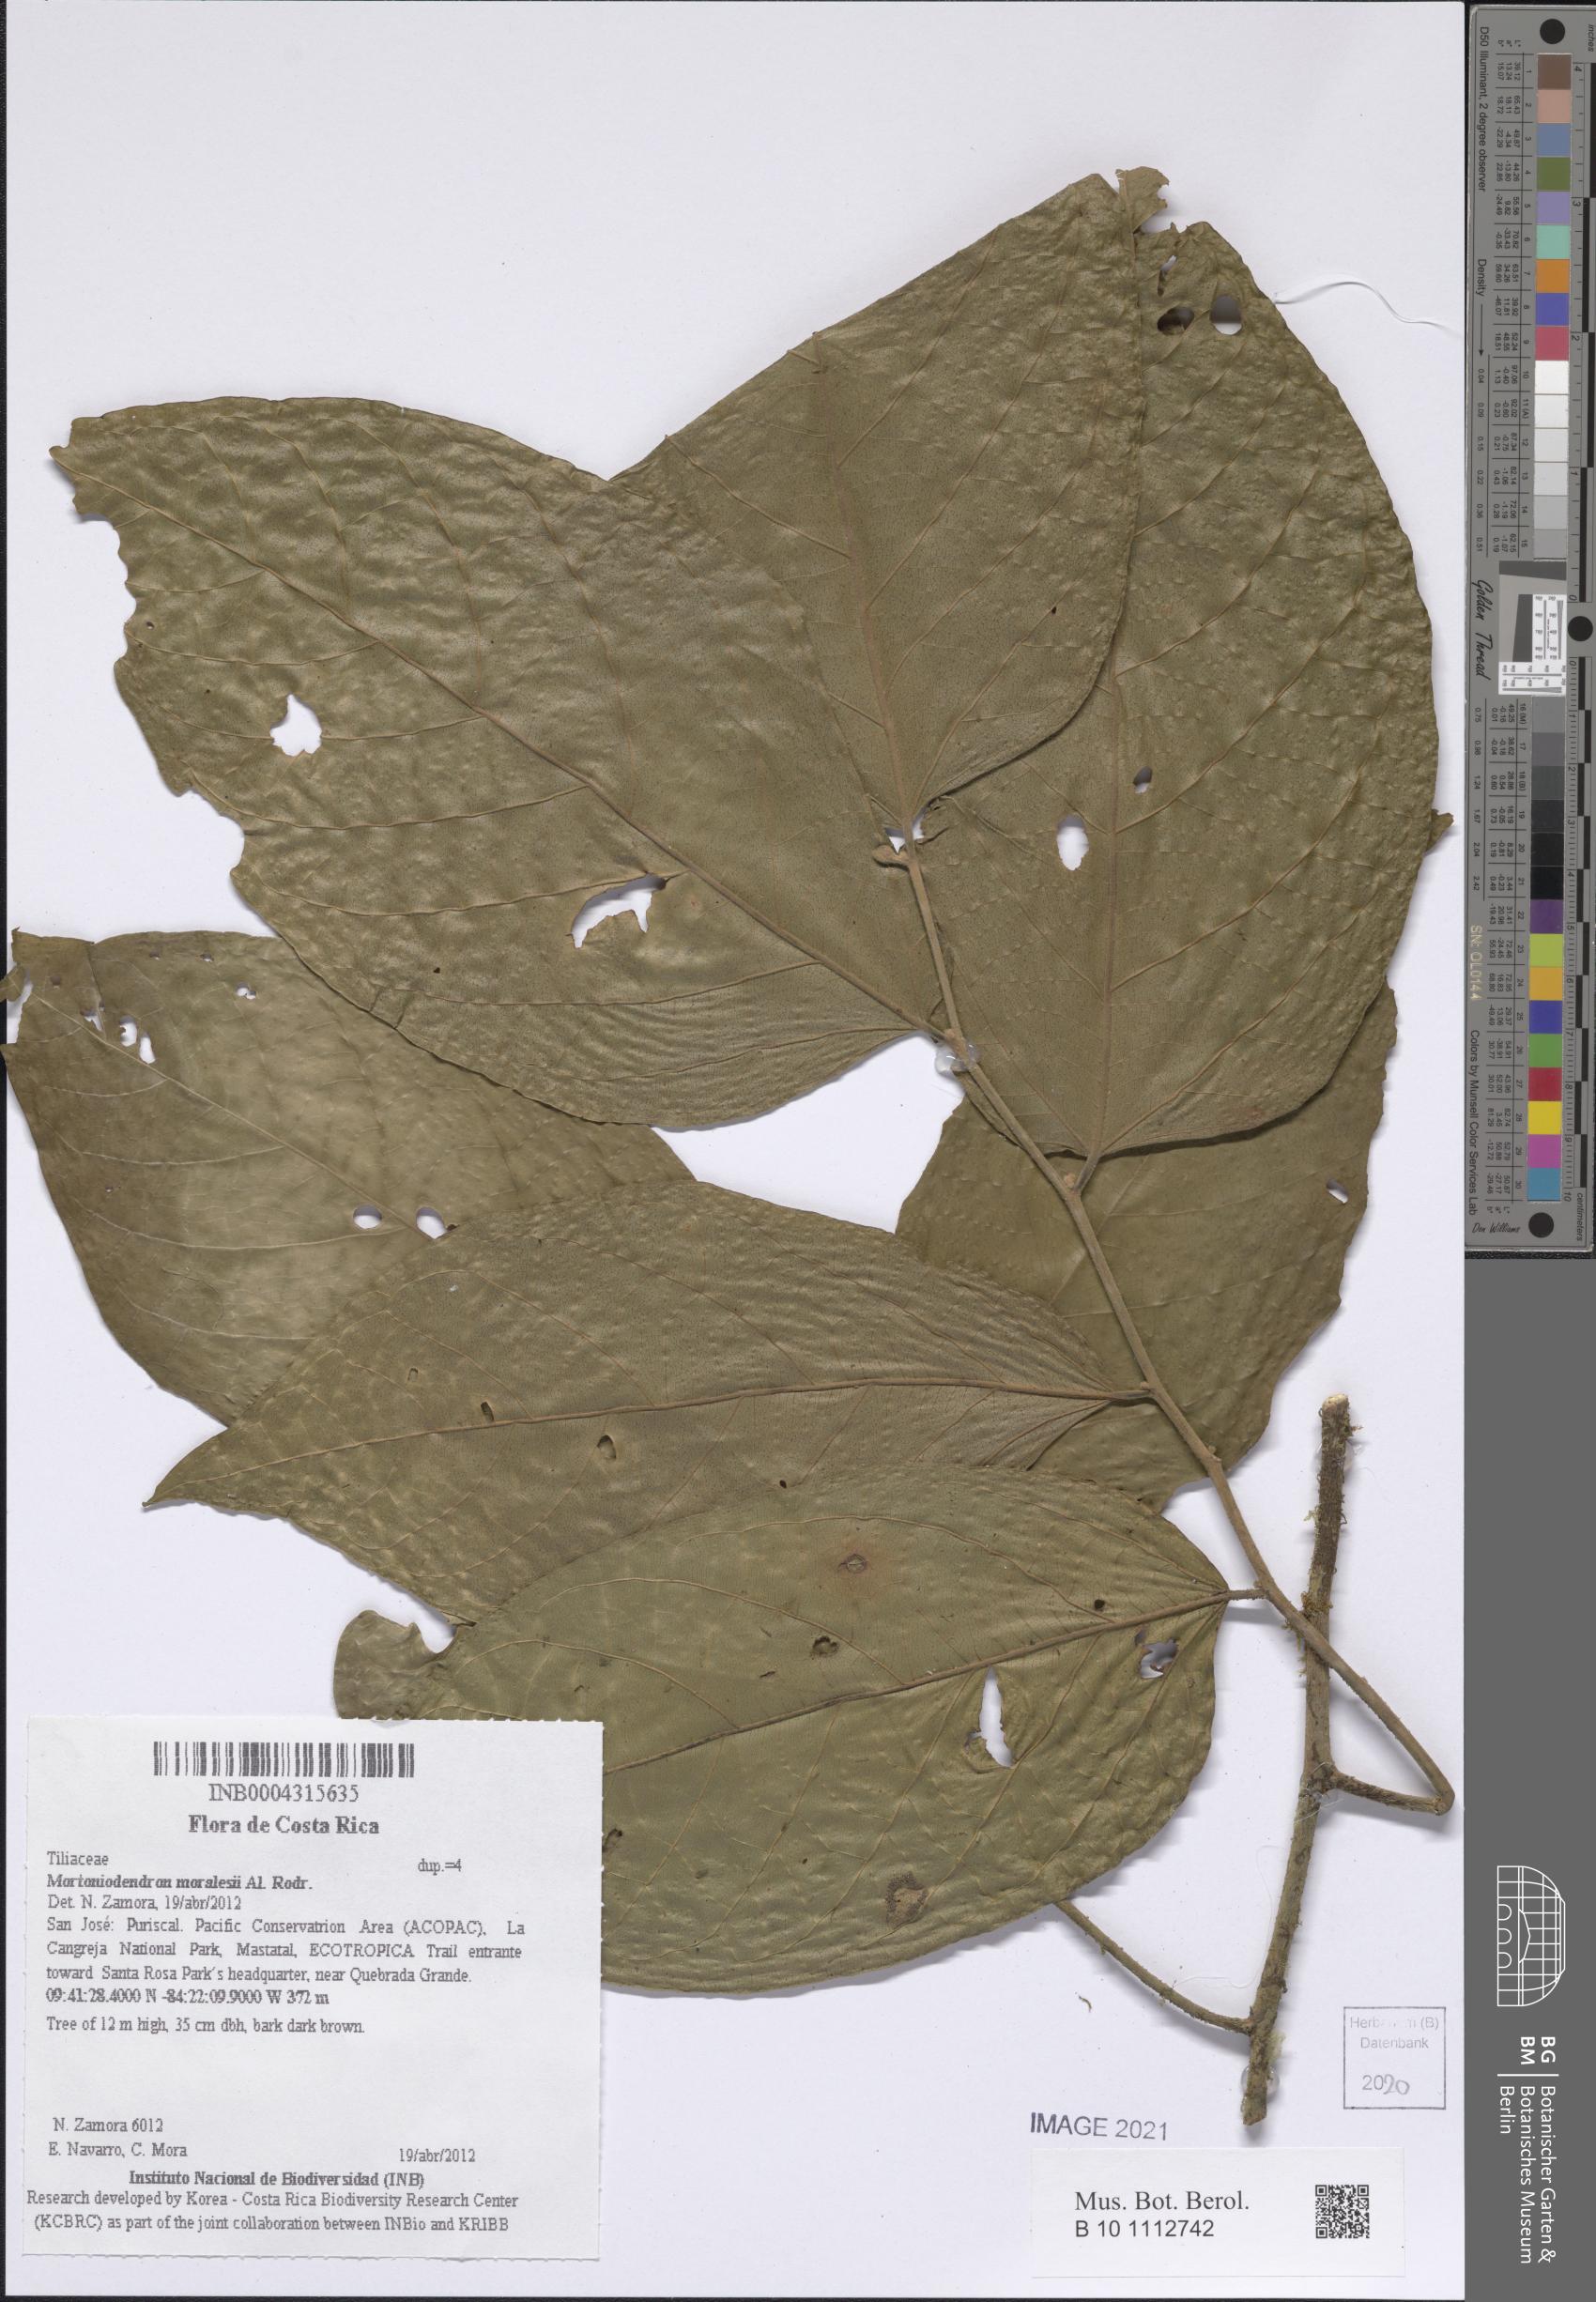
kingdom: Plantae
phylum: Tracheophyta
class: Magnoliopsida
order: Malvales
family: Malvaceae
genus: Mortoniodendron
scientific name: Mortoniodendron anisophyllum
